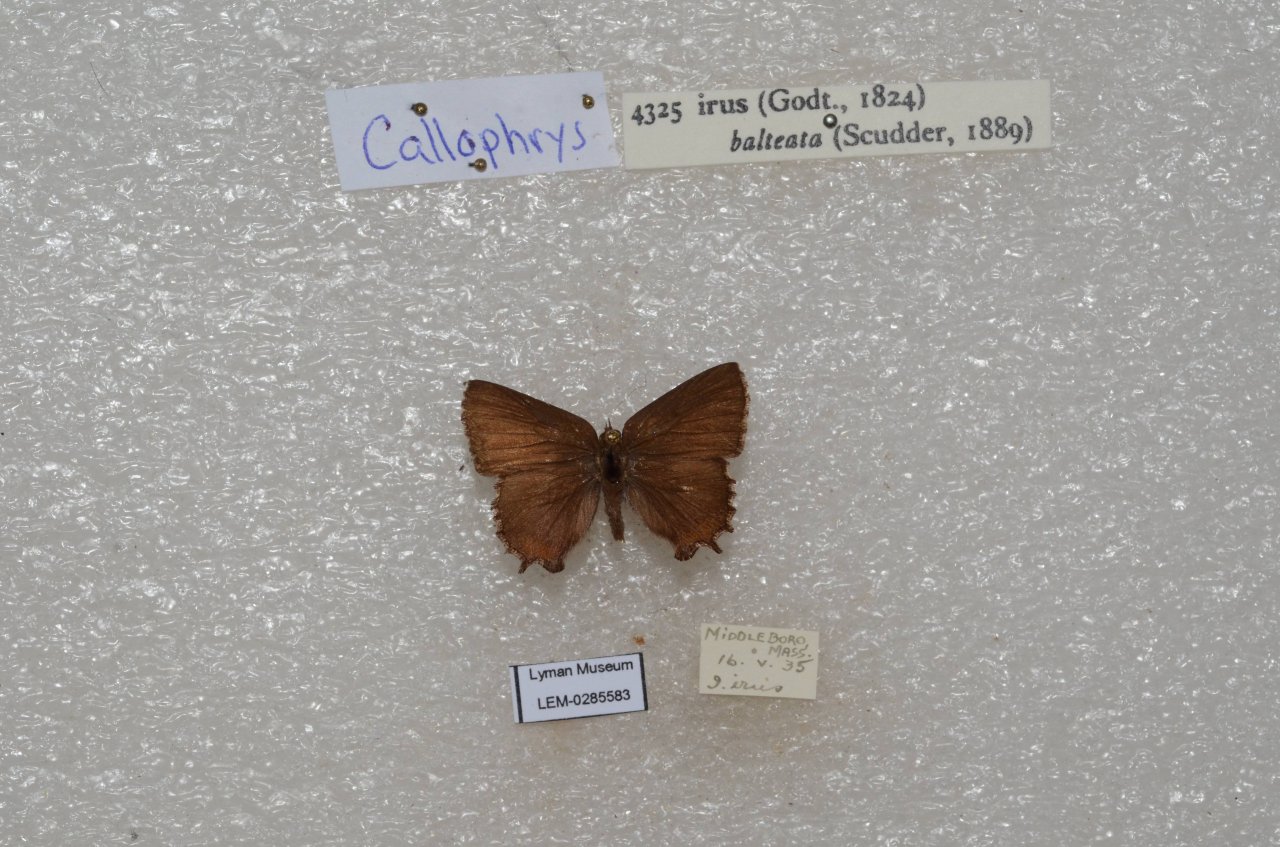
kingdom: Animalia
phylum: Arthropoda
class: Insecta
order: Lepidoptera
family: Lycaenidae
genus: Thecla
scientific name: Thecla irus
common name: Frosted Elfin
